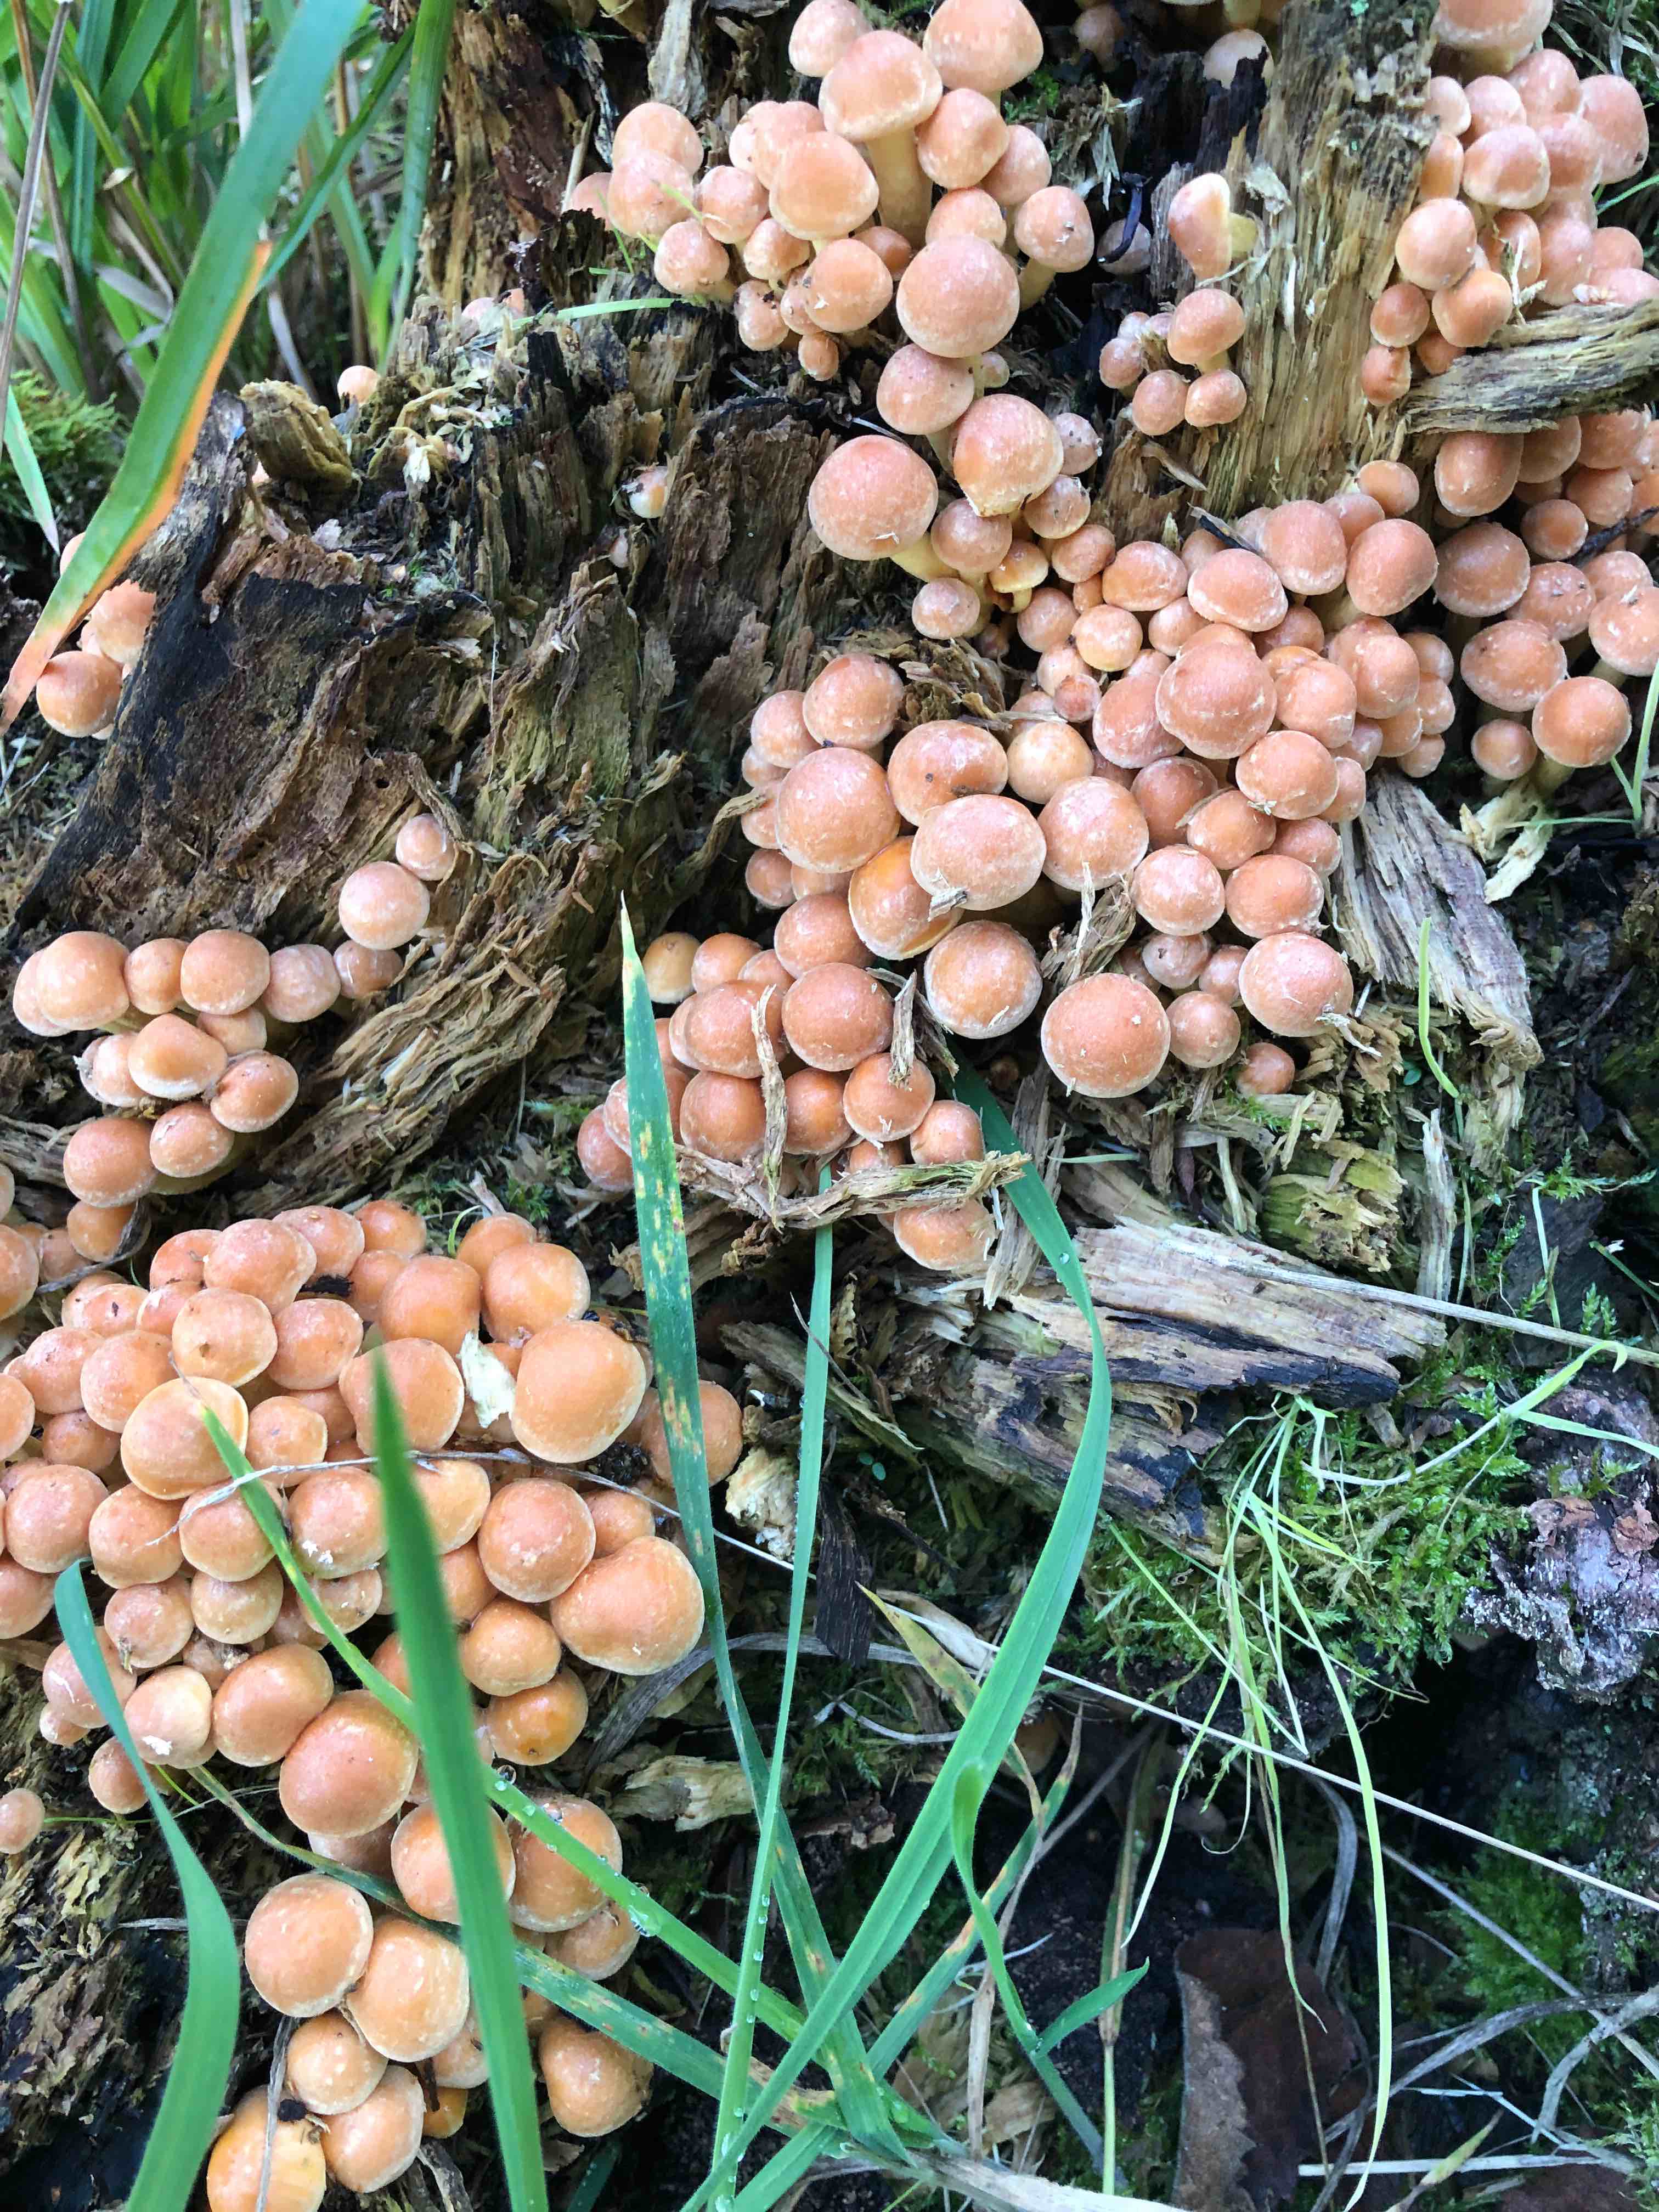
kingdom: Fungi
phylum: Basidiomycota
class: Agaricomycetes
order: Agaricales
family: Strophariaceae
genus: Hypholoma
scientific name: Hypholoma fasciculare
